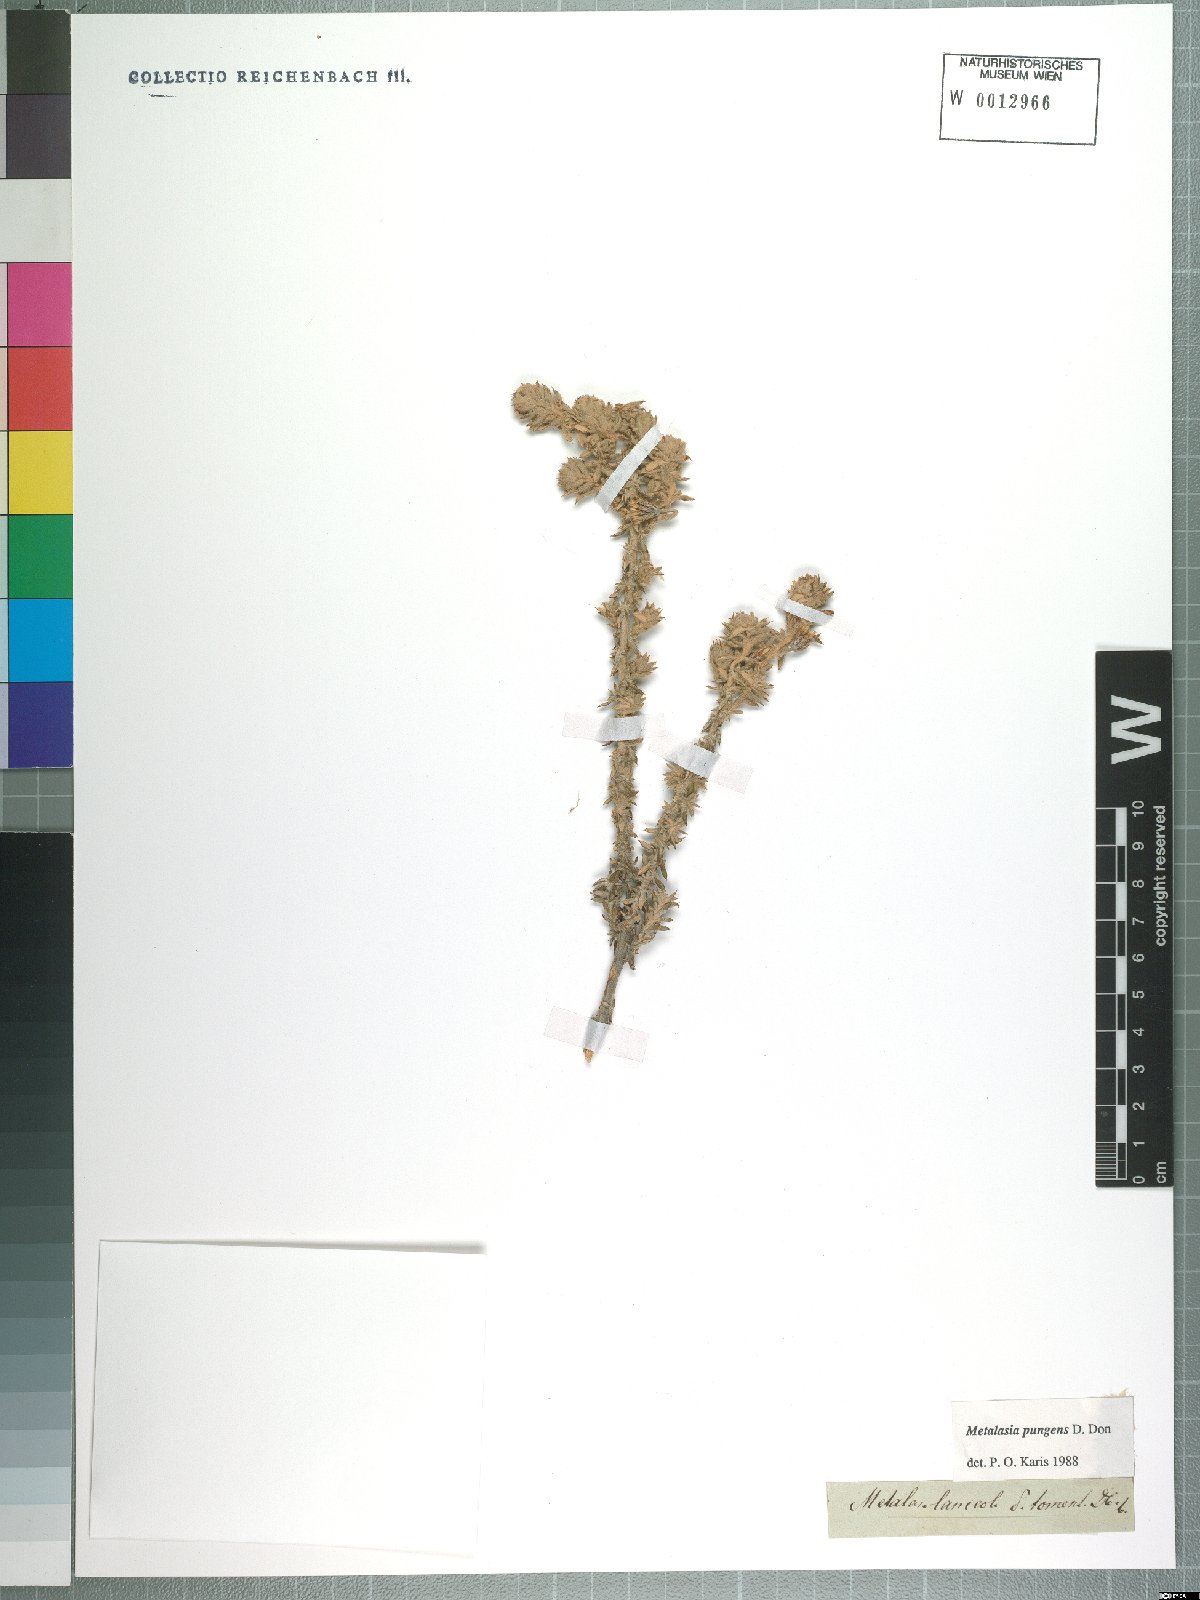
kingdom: Plantae
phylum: Tracheophyta
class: Magnoliopsida
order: Asterales
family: Asteraceae
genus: Metalasia
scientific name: Metalasia pungens
